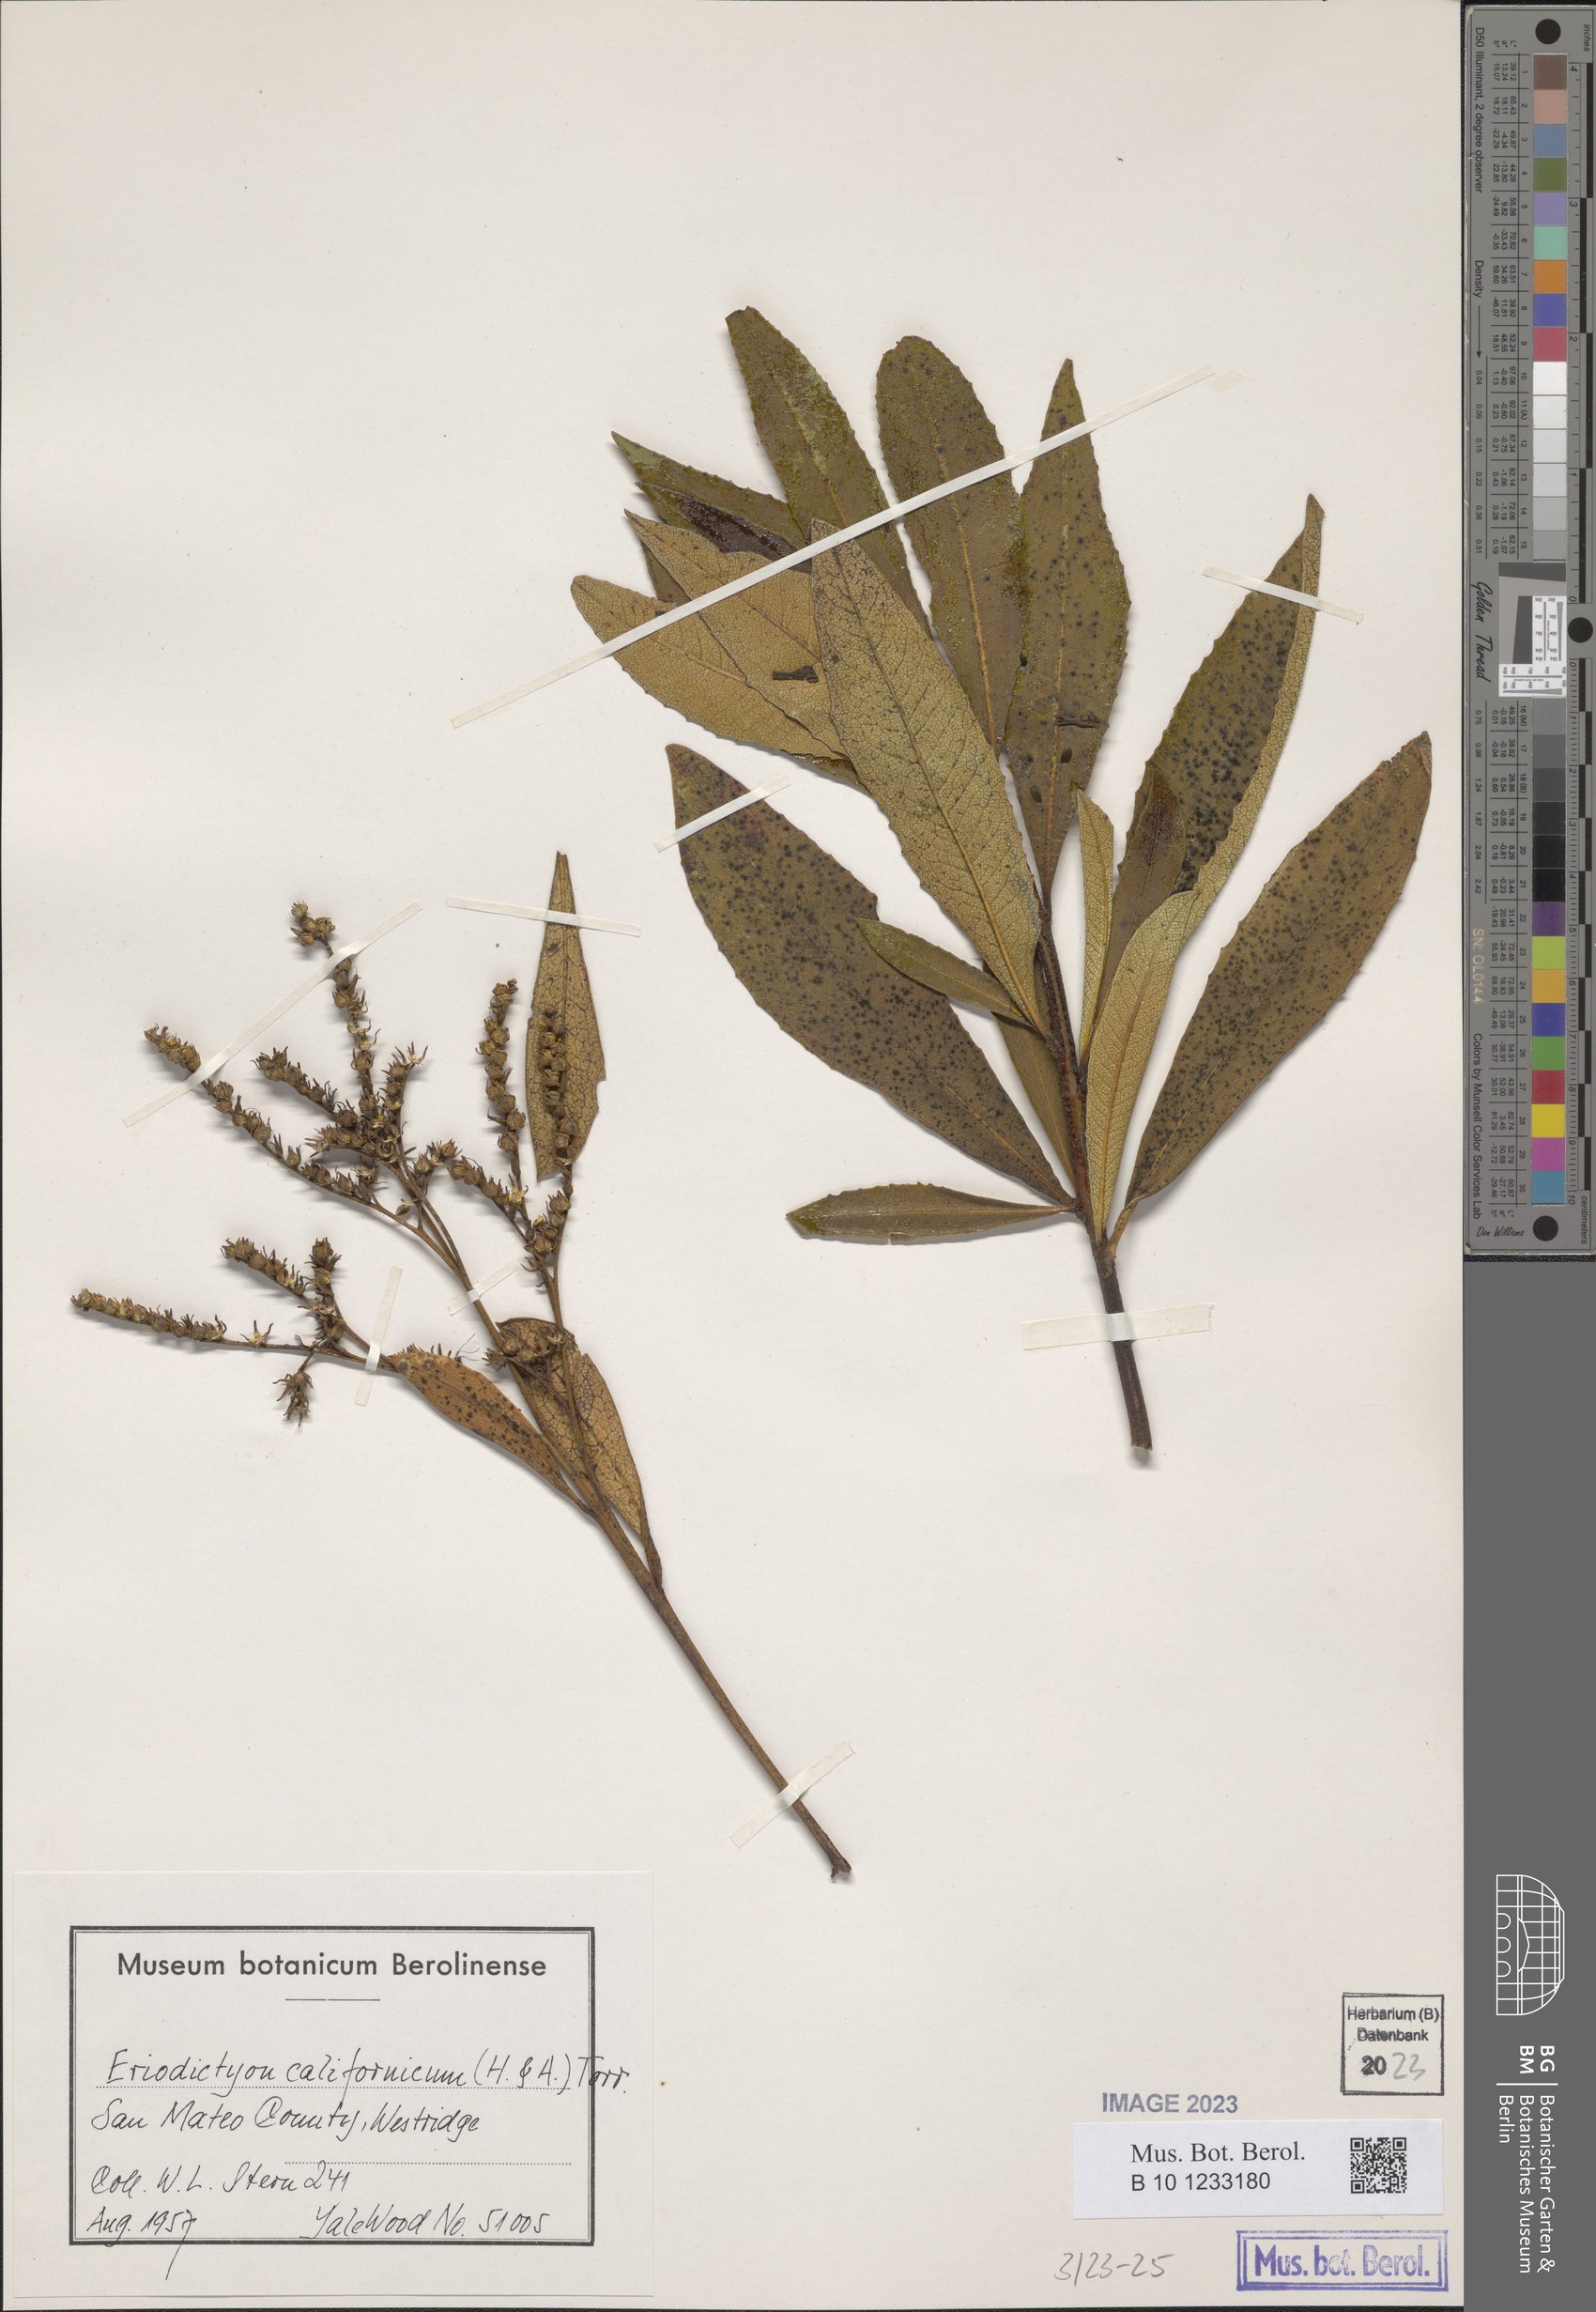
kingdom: Plantae
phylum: Tracheophyta
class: Magnoliopsida
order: Boraginales
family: Namaceae
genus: Eriodictyon
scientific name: Eriodictyon crassifolium
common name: Thick-leaf yerba-santa
